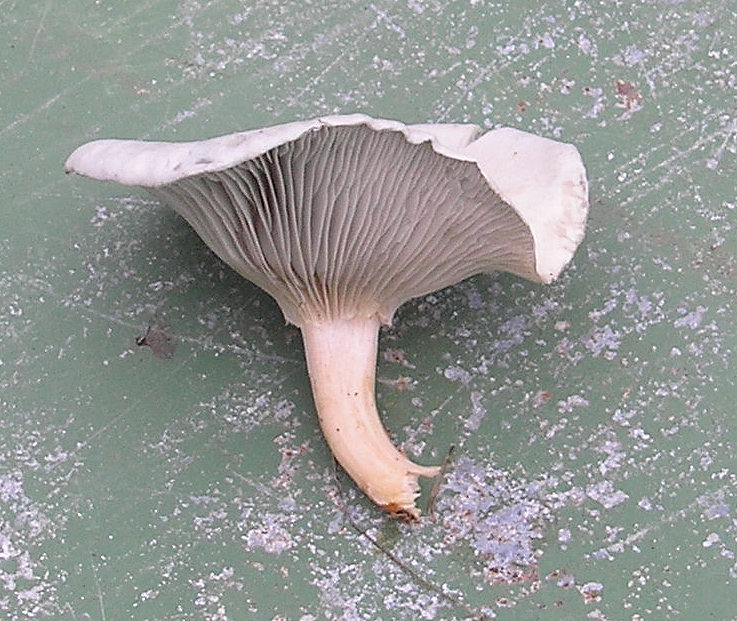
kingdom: Fungi
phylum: Basidiomycota
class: Agaricomycetes
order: Agaricales
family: Tricholomataceae
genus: Clitocybe
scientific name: Clitocybe odora
